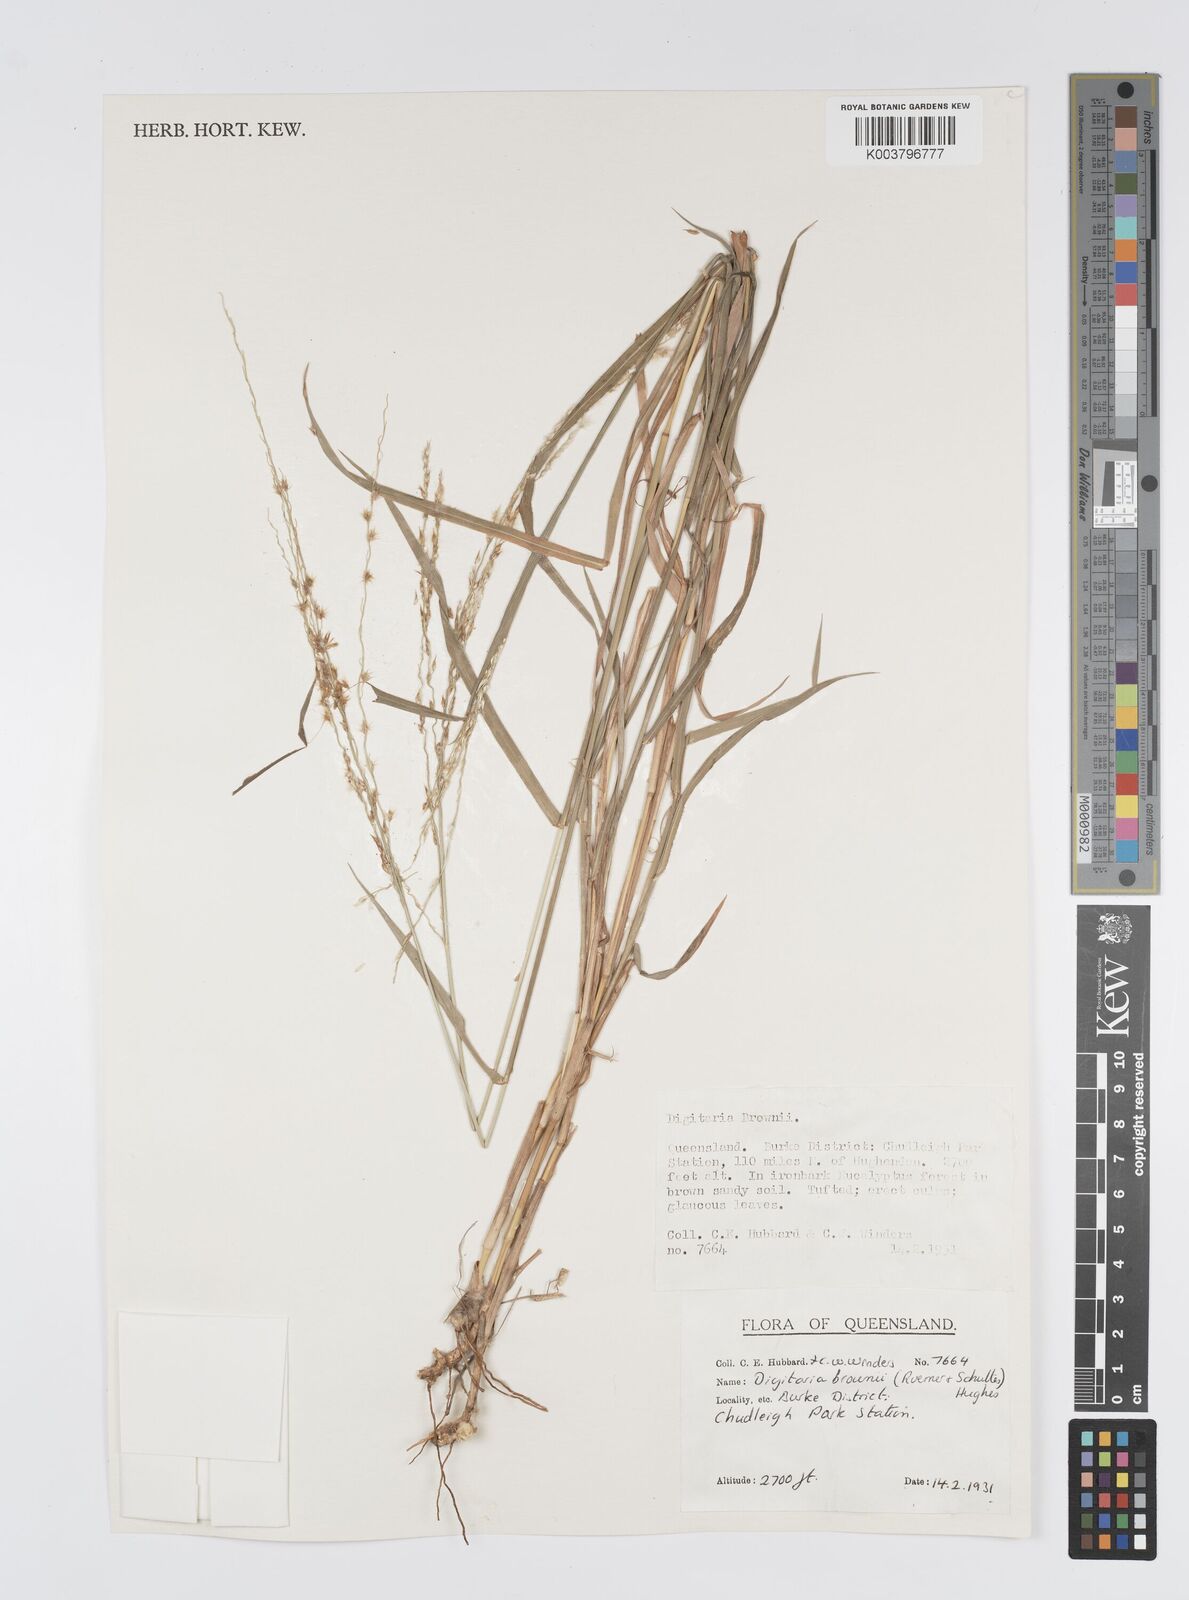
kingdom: Plantae
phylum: Tracheophyta
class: Liliopsida
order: Poales
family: Poaceae
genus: Digitaria
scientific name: Digitaria brownii
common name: Cotton grass
